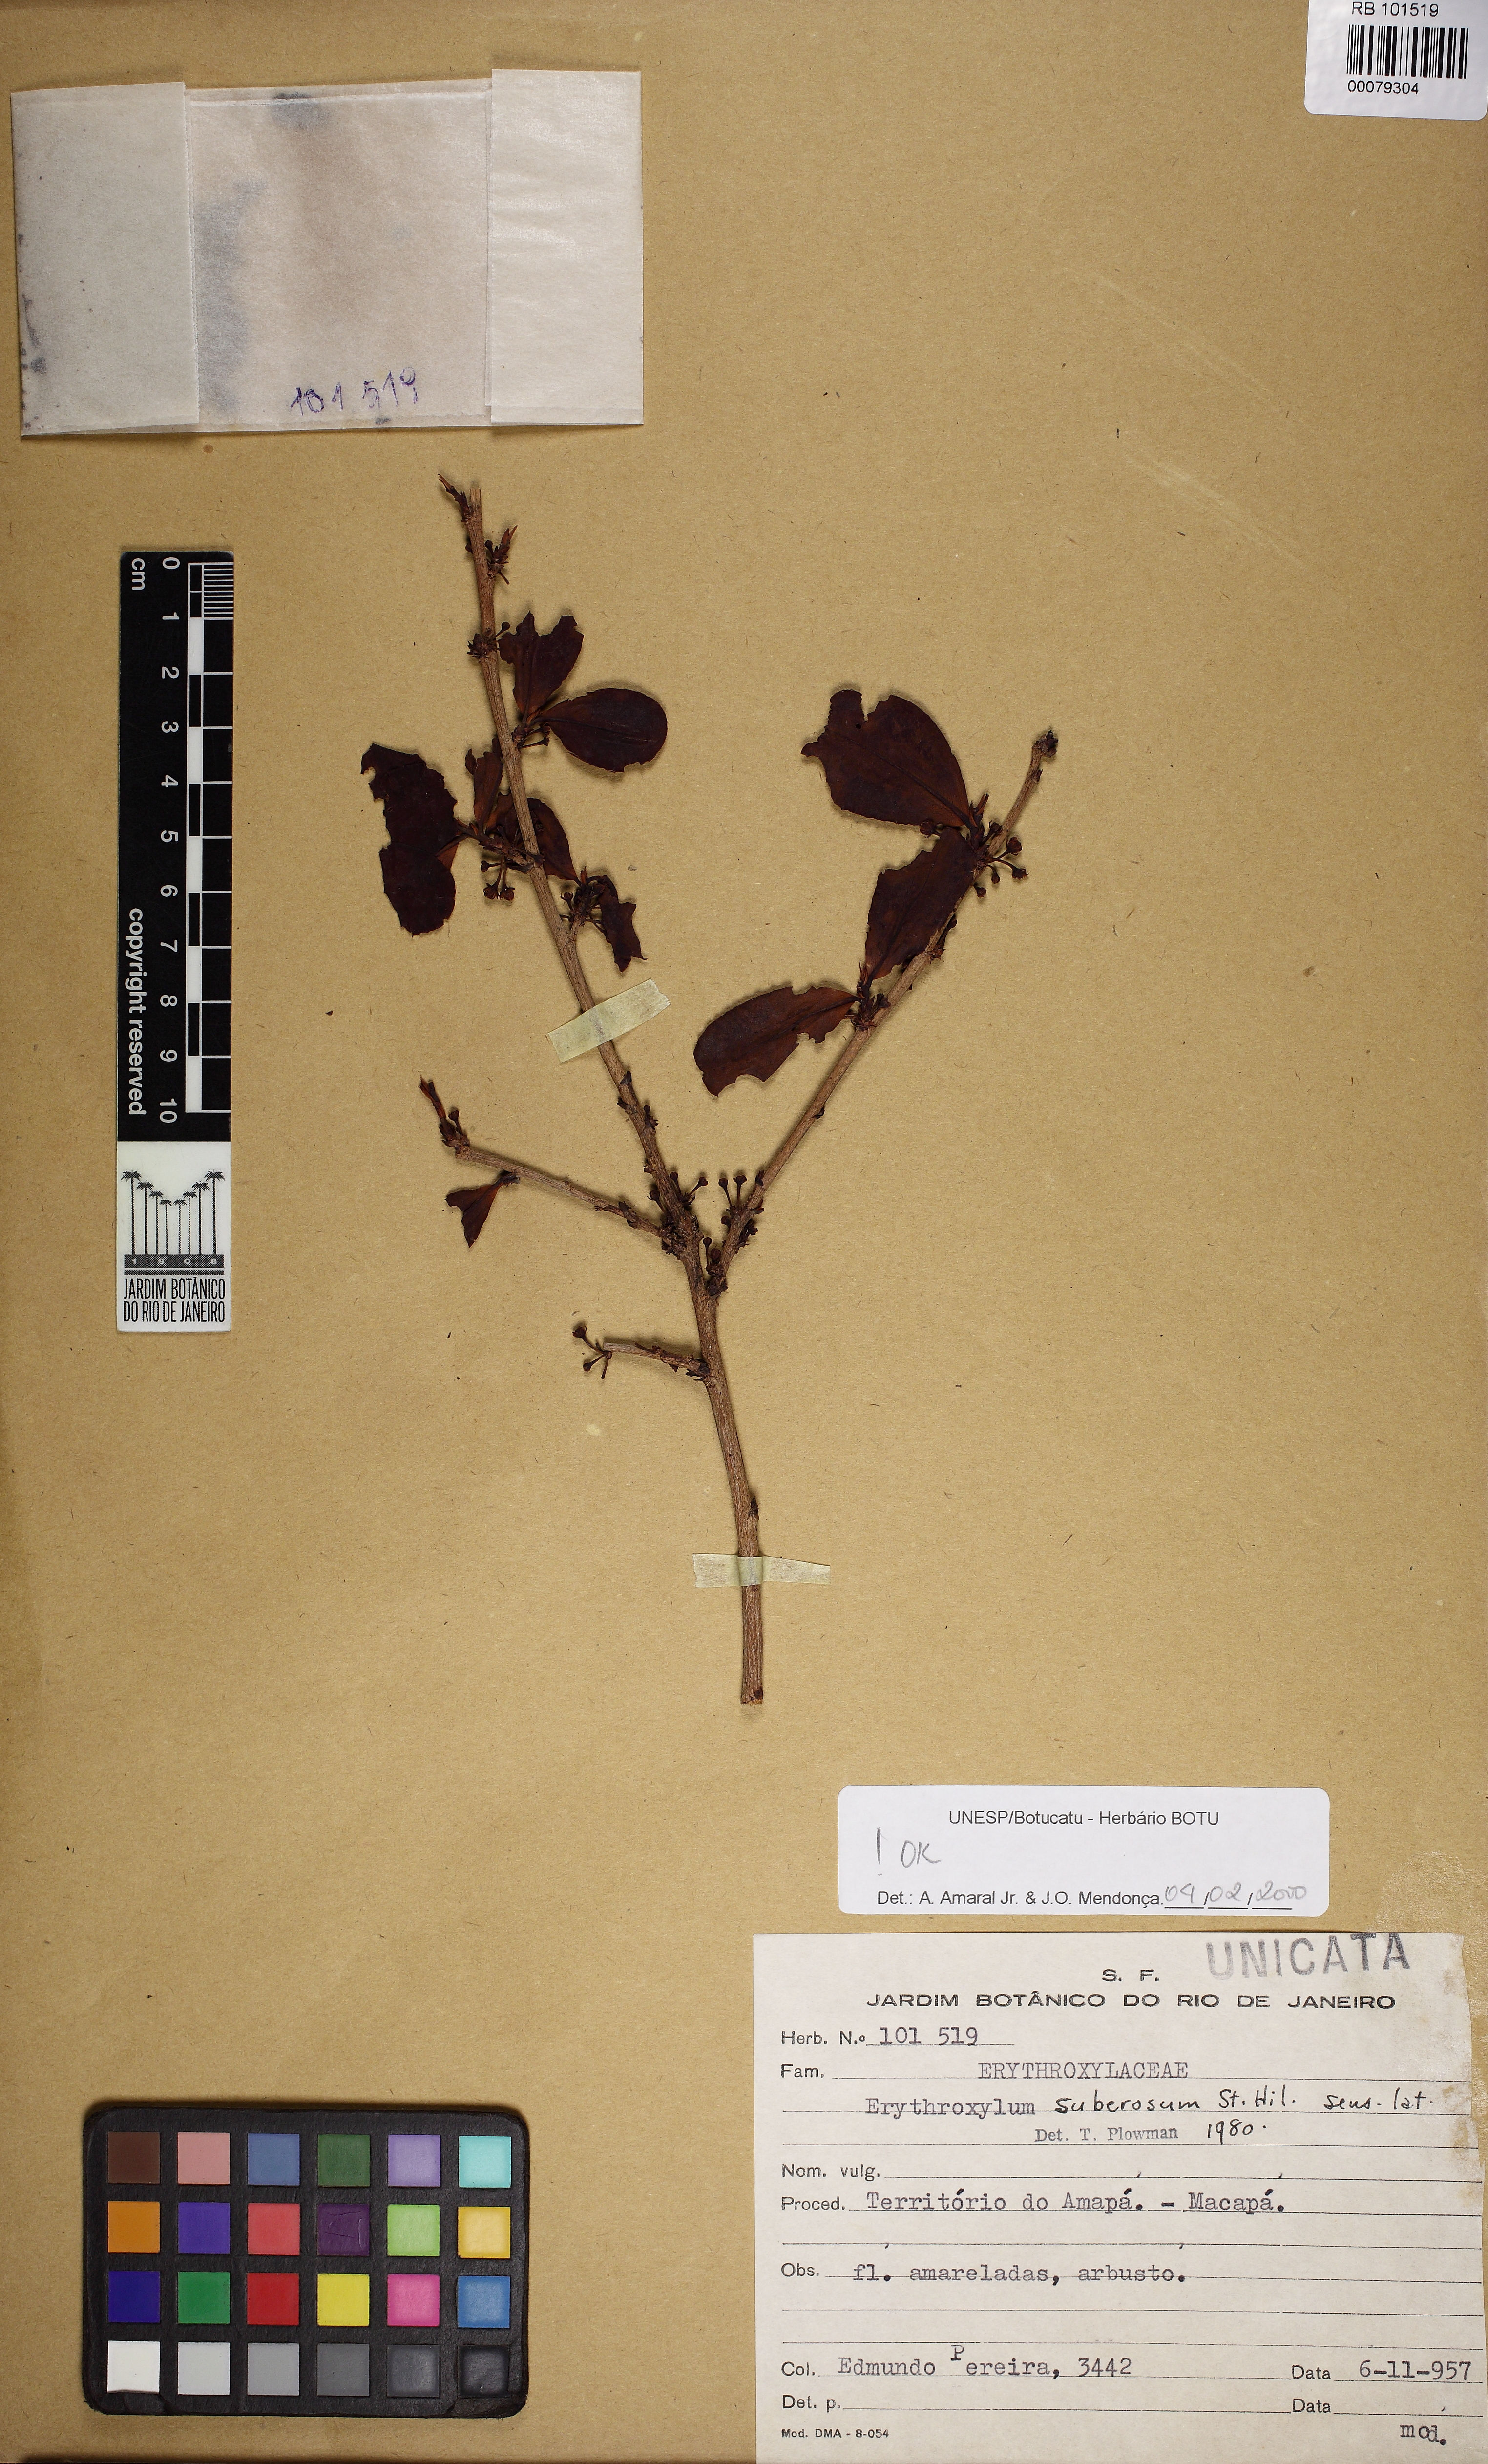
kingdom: Plantae
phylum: Tracheophyta
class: Magnoliopsida
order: Malpighiales
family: Erythroxylaceae
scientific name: Erythroxylaceae
